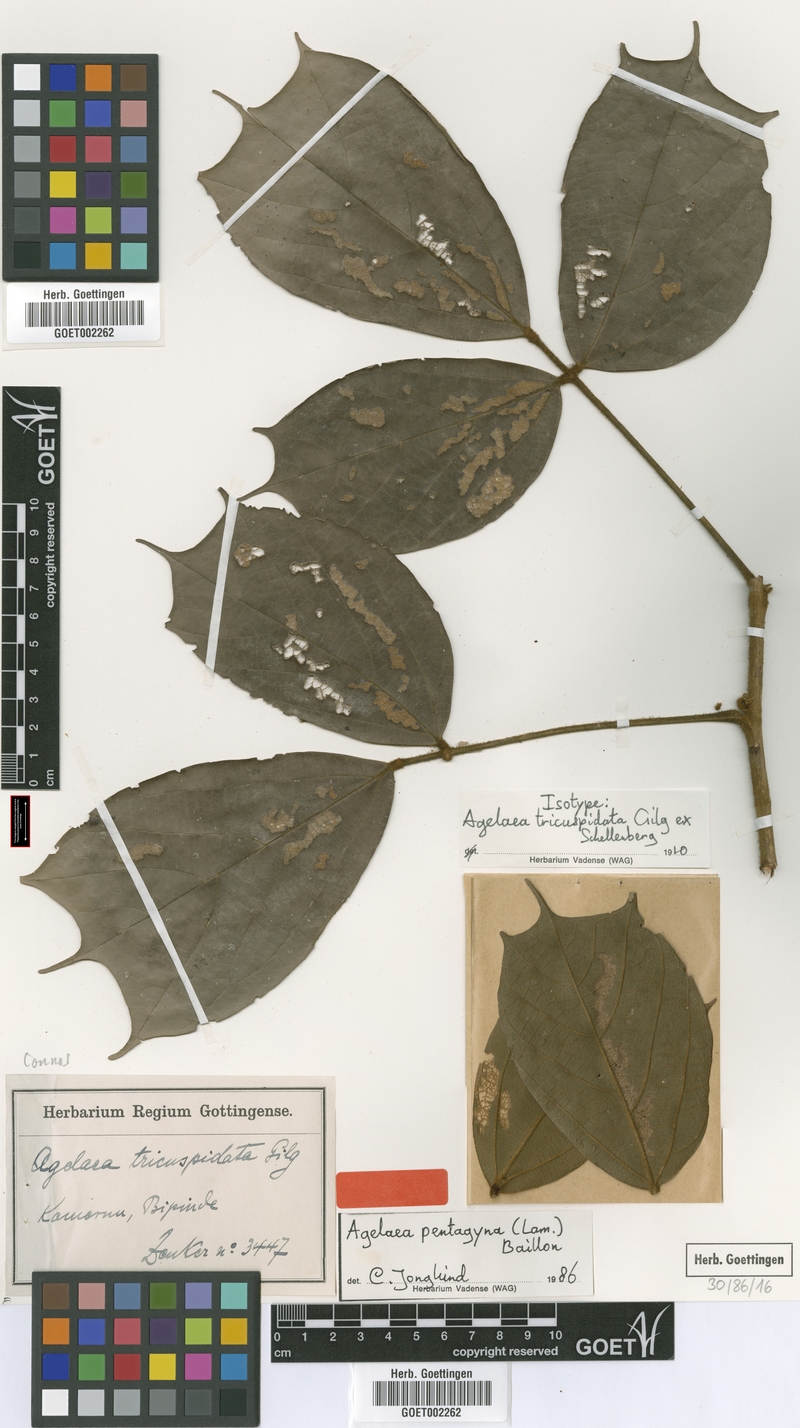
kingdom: Plantae
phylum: Tracheophyta
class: Magnoliopsida
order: Oxalidales
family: Connaraceae
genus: Agelaea
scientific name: Agelaea pentagyna
